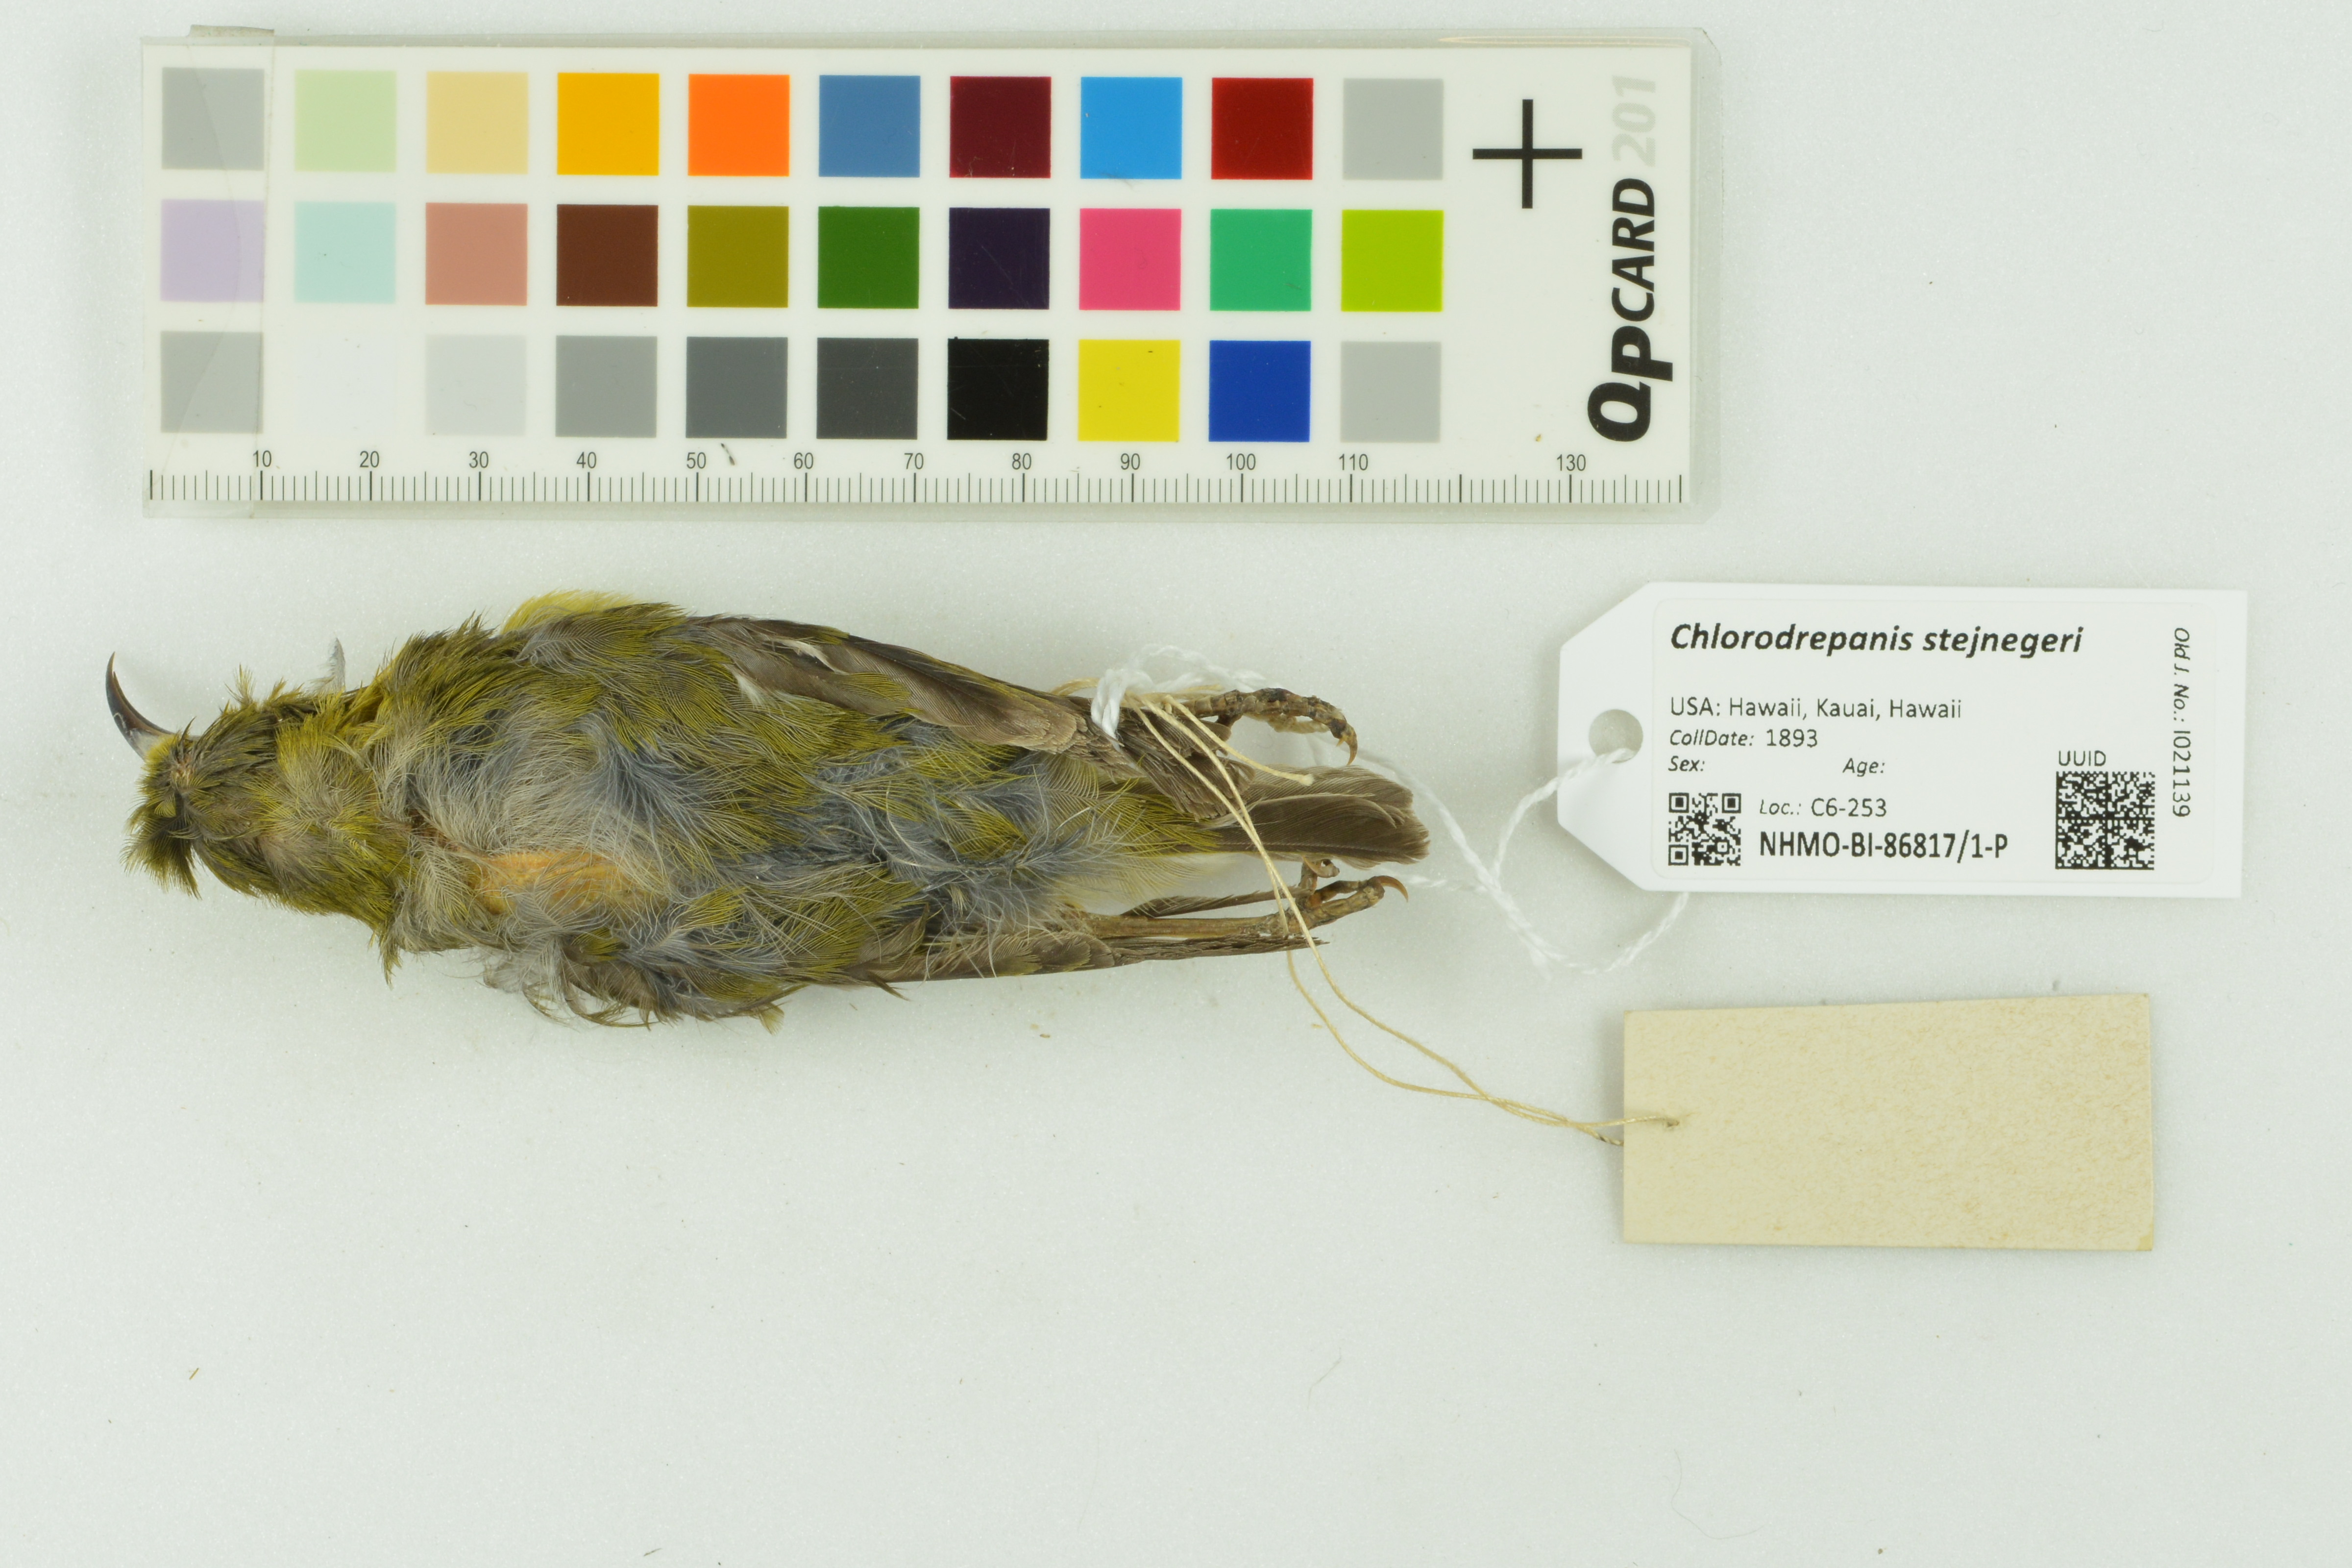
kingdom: Animalia
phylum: Chordata
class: Aves
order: Passeriformes
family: Fringillidae
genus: Chlorodrepanis
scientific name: Chlorodrepanis stejnegeri
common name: Kauai amakihi
